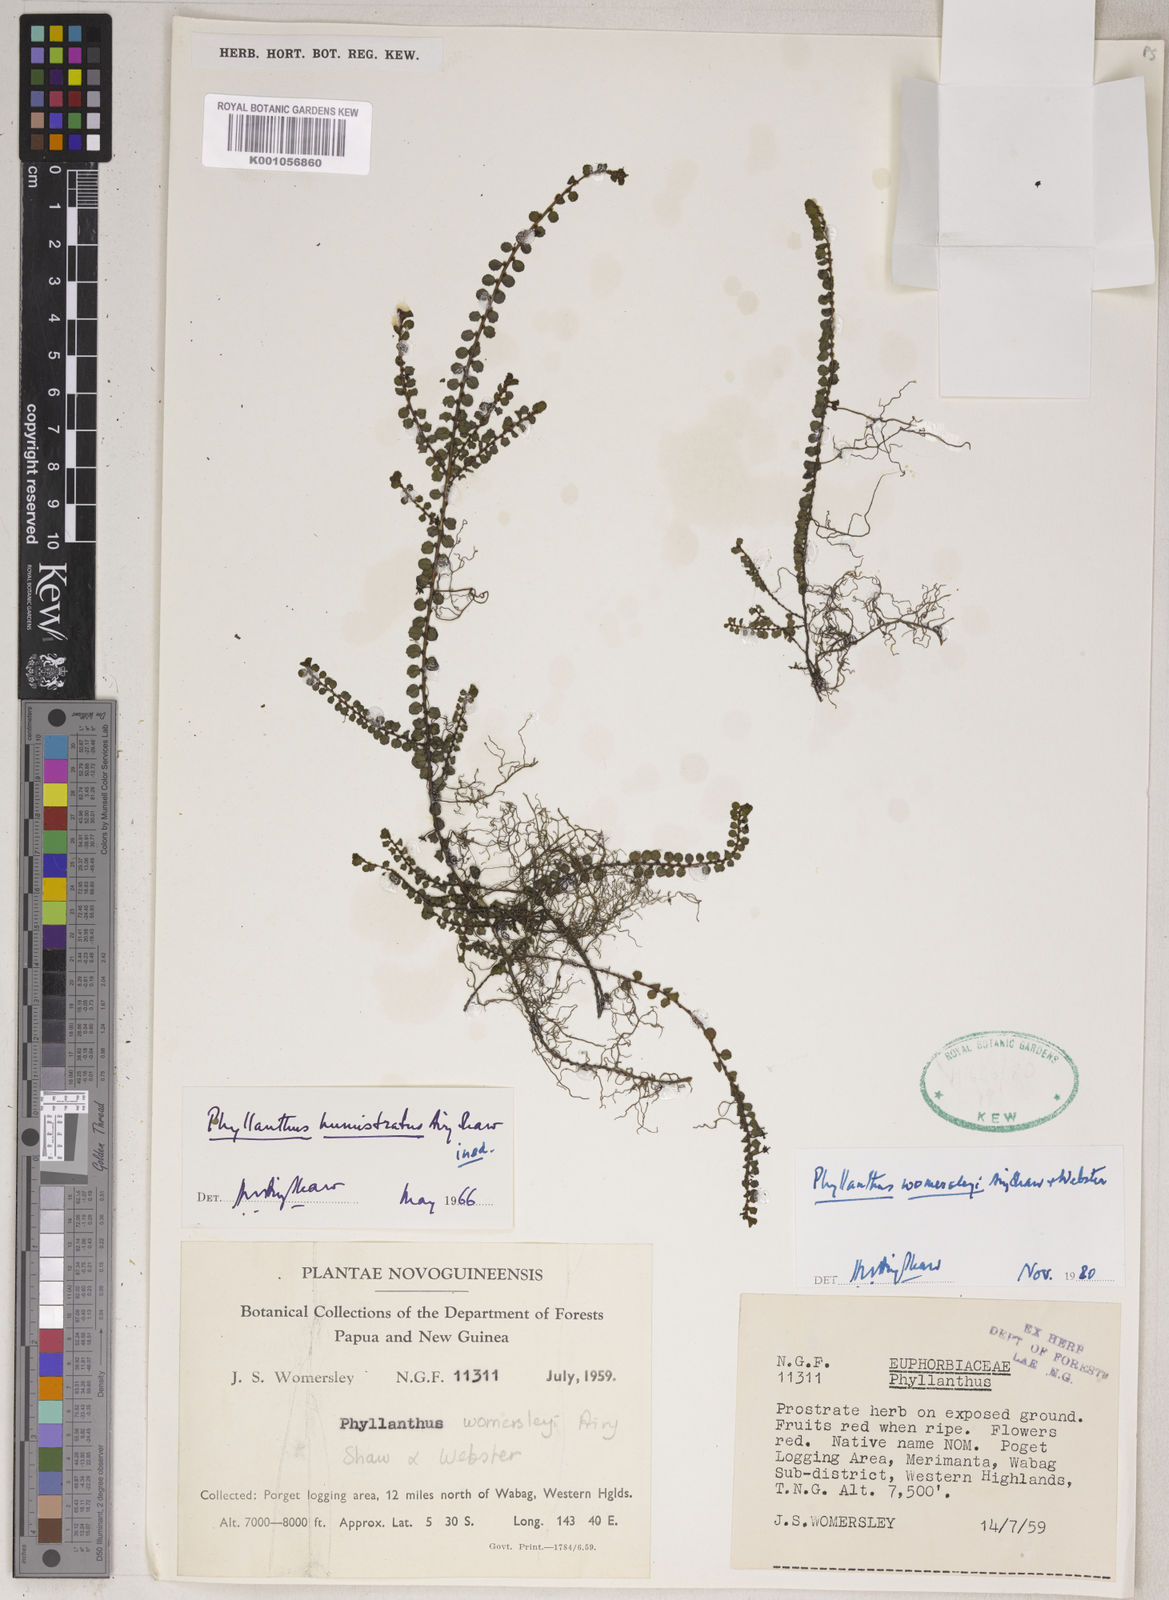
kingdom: Plantae
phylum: Tracheophyta
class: Magnoliopsida
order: Malpighiales
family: Phyllanthaceae
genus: Phyllanthus
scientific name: Phyllanthus womersleyi
